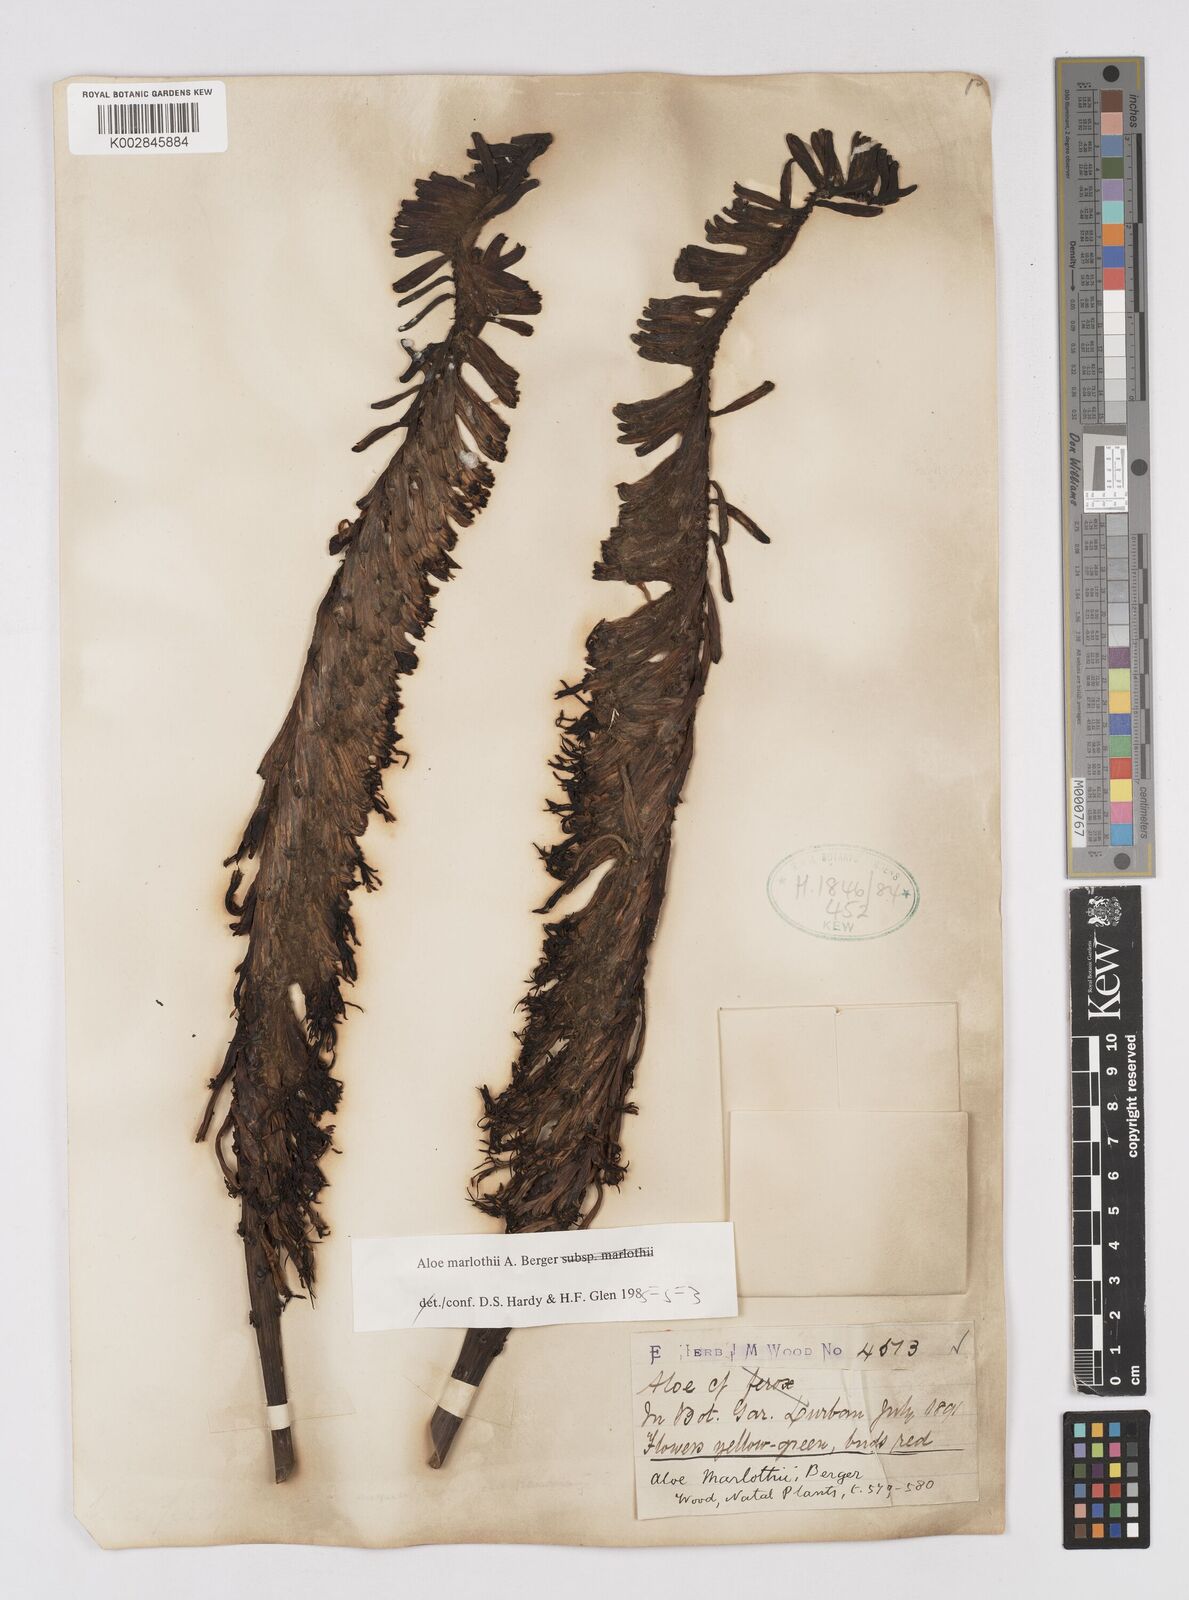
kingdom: Plantae
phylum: Tracheophyta
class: Liliopsida
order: Asparagales
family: Asphodelaceae
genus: Aloe
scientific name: Aloe marlothii
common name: Flat-flowered aloe
